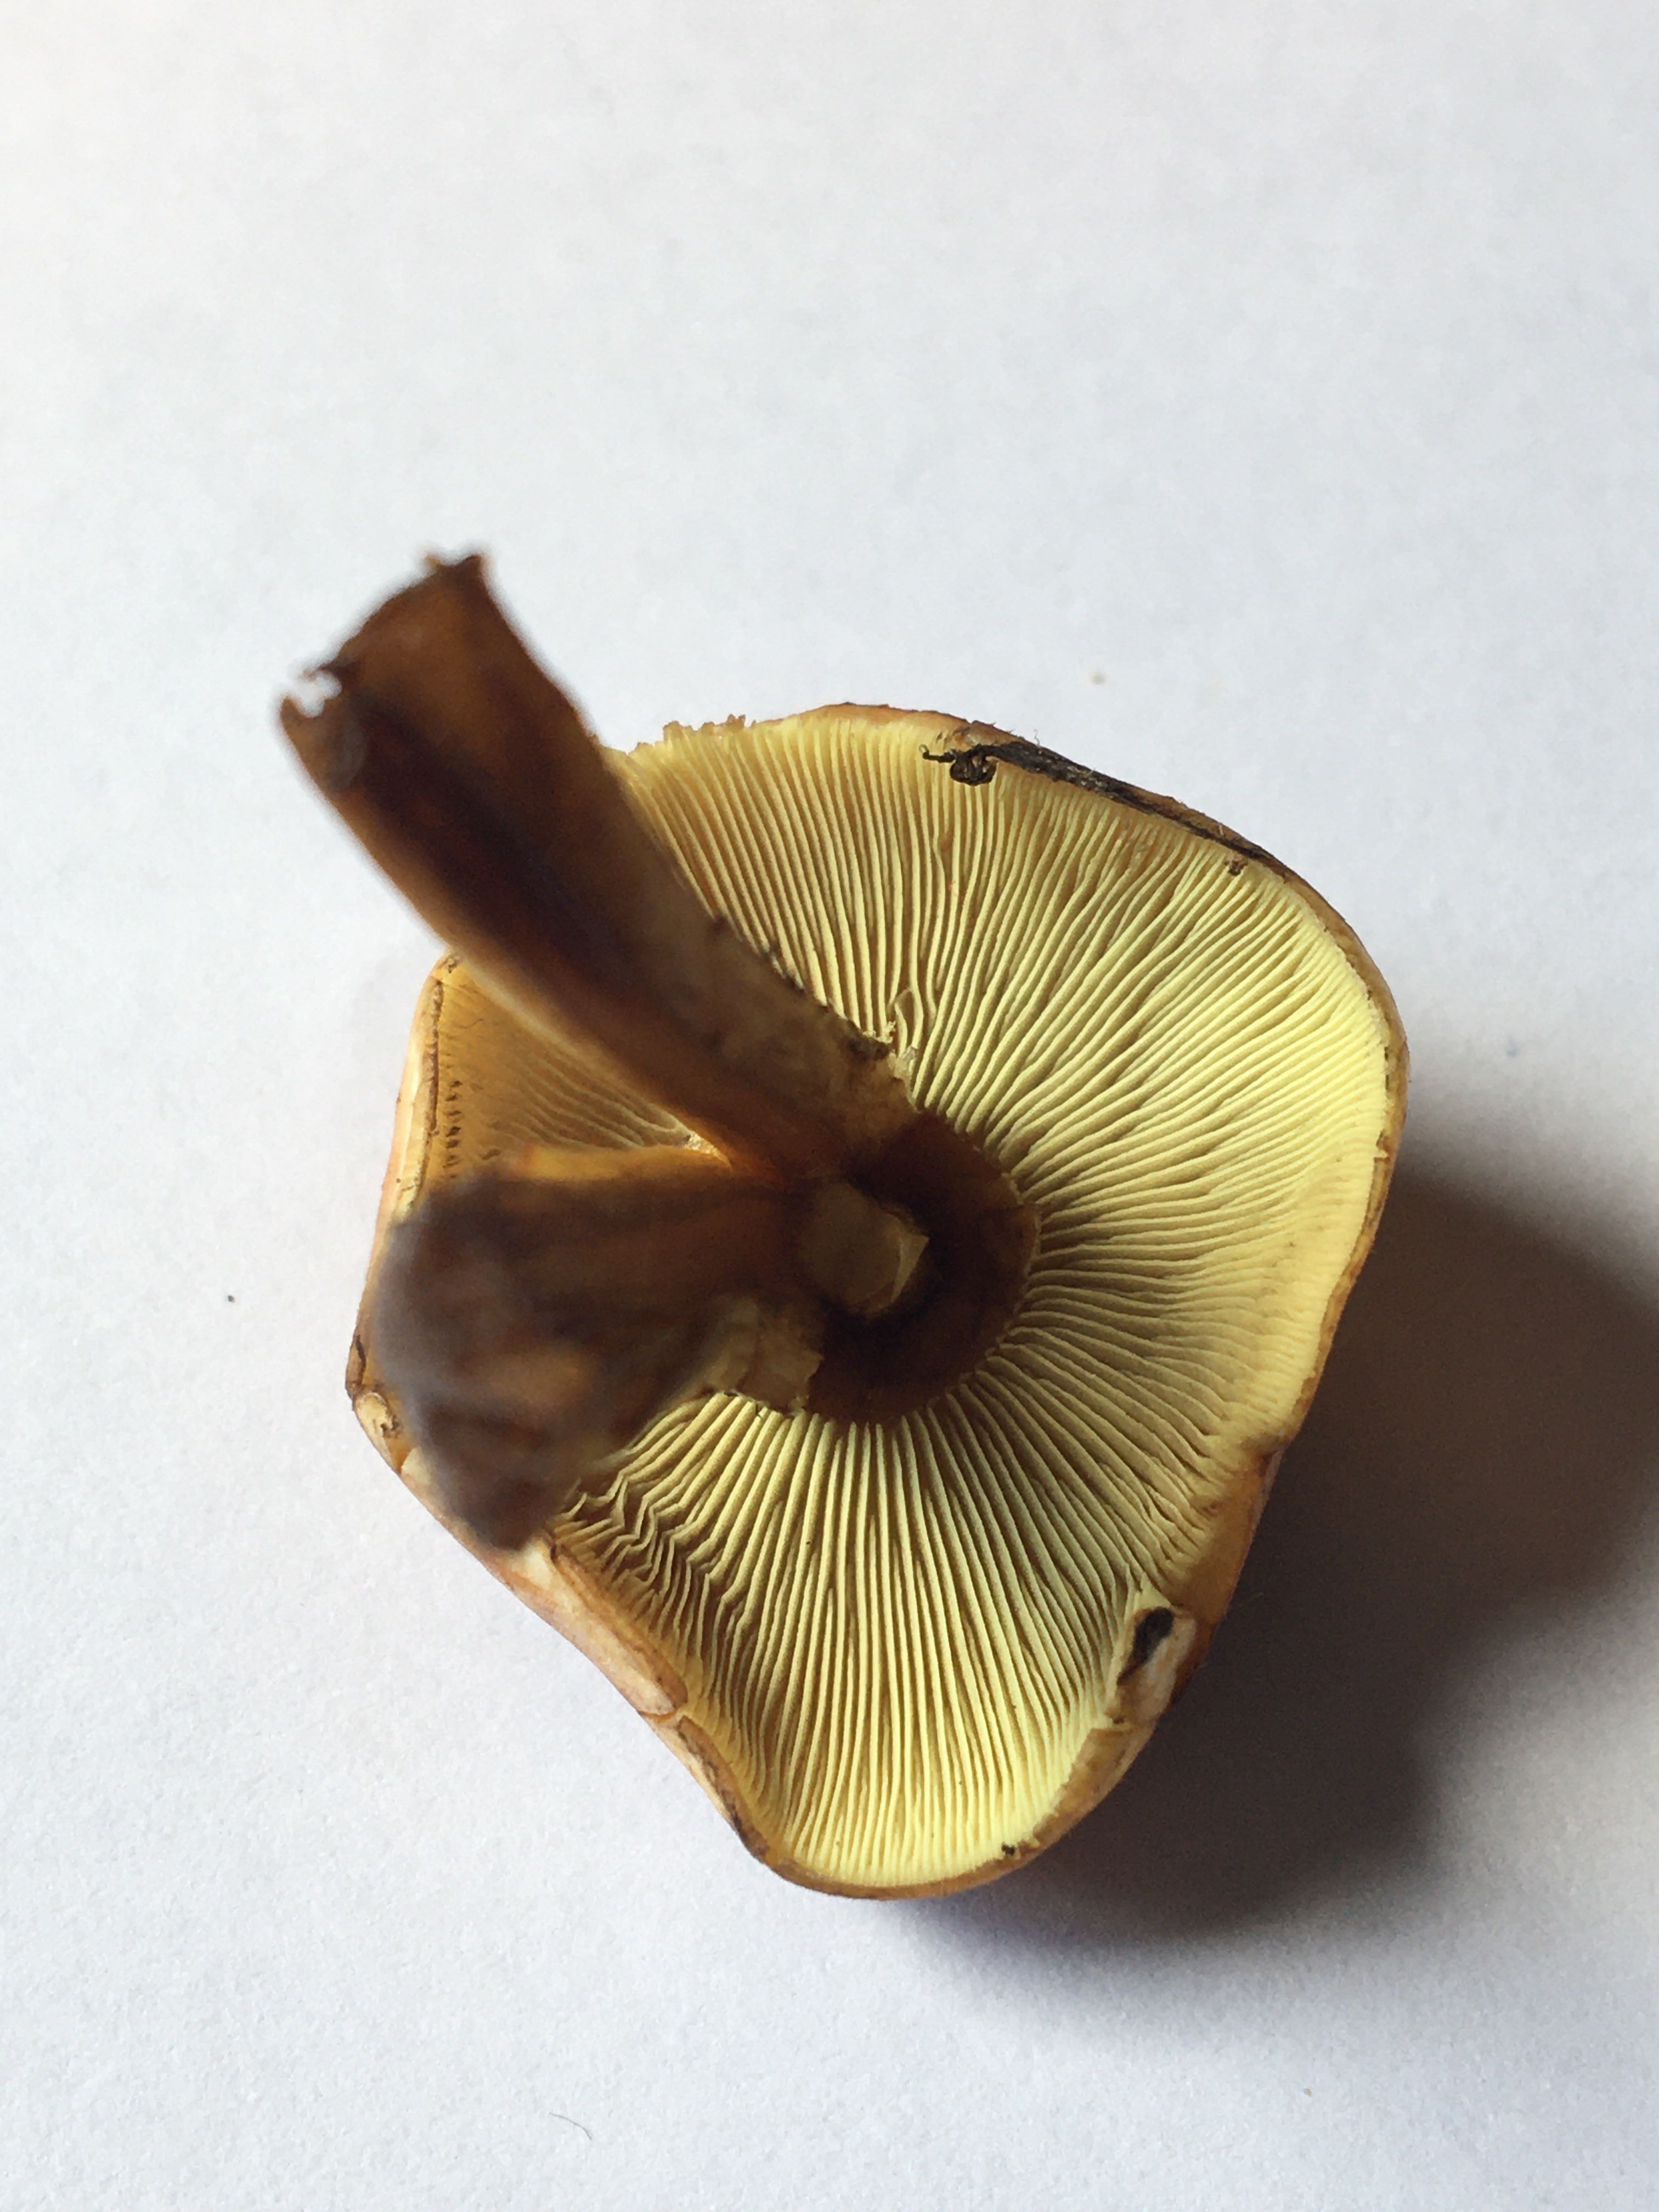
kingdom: Fungi
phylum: Basidiomycota
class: Agaricomycetes
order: Agaricales
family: Strophariaceae
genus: Hypholoma
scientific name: Hypholoma fasciculare
